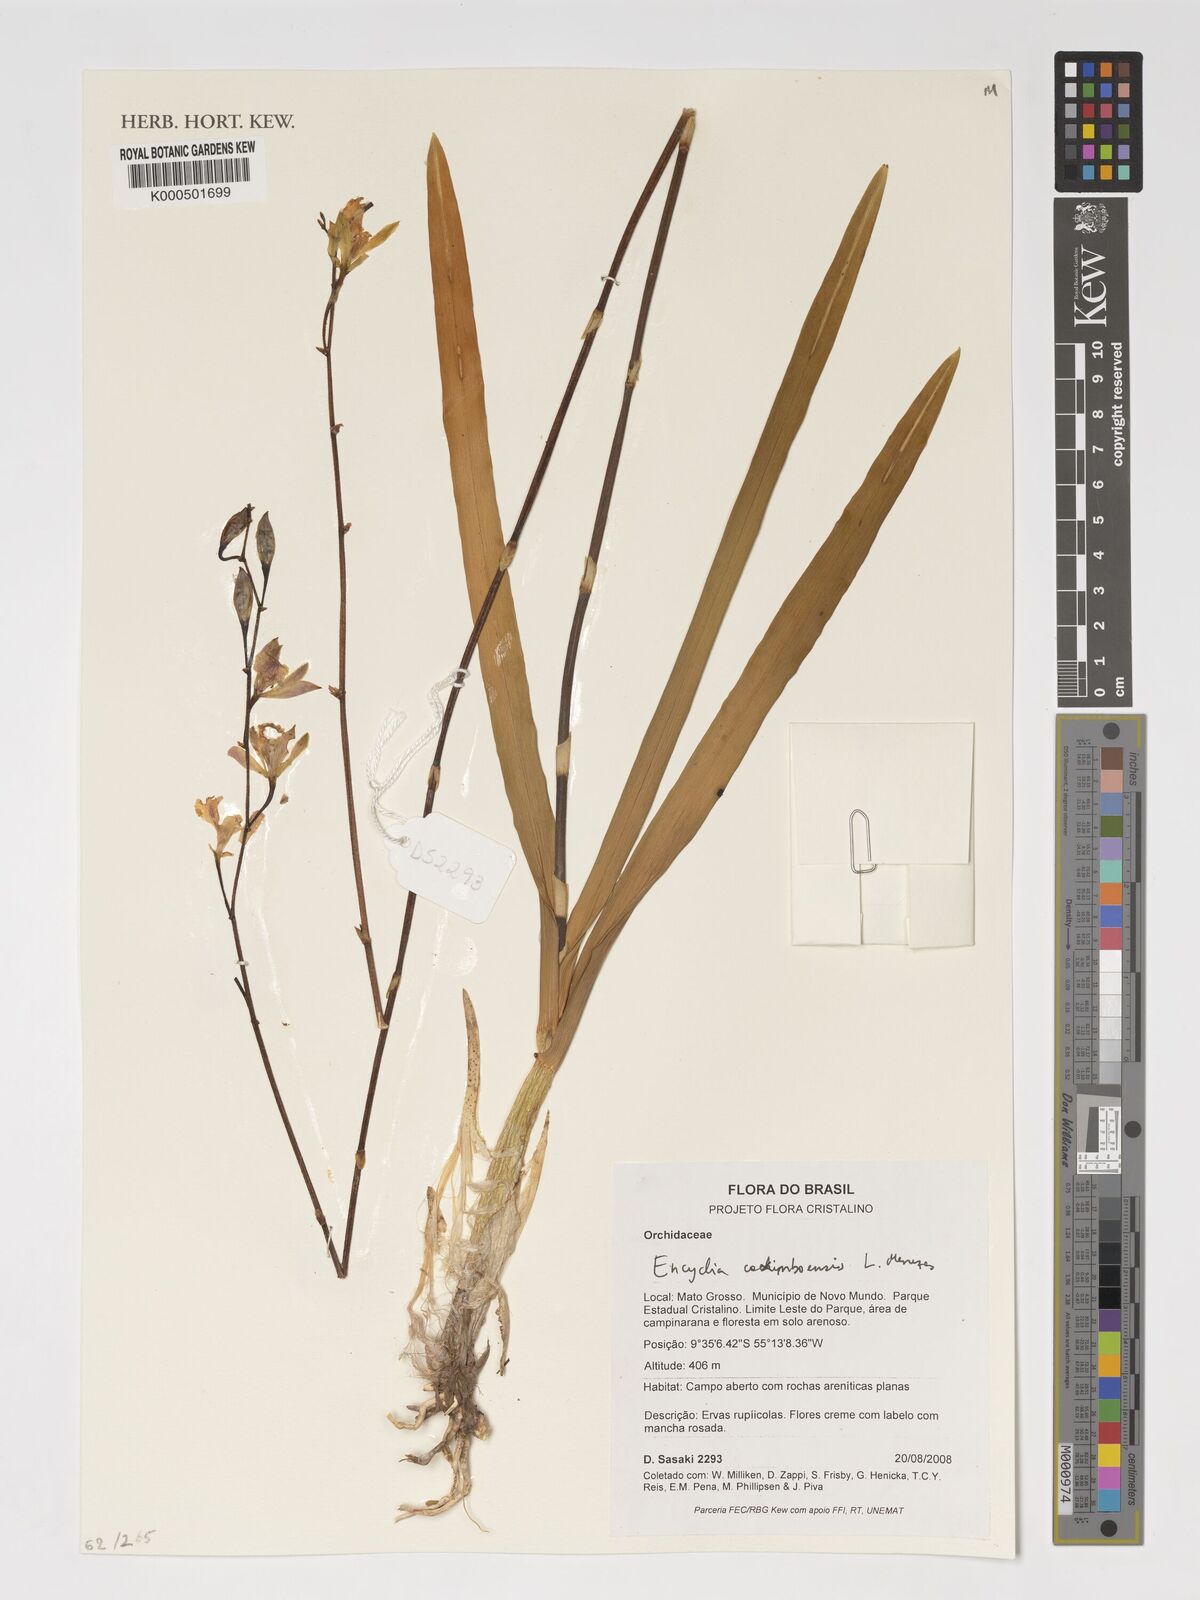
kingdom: Plantae
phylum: Tracheophyta
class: Liliopsida
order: Asparagales
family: Orchidaceae
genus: Encyclia
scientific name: Encyclia xerophytica
